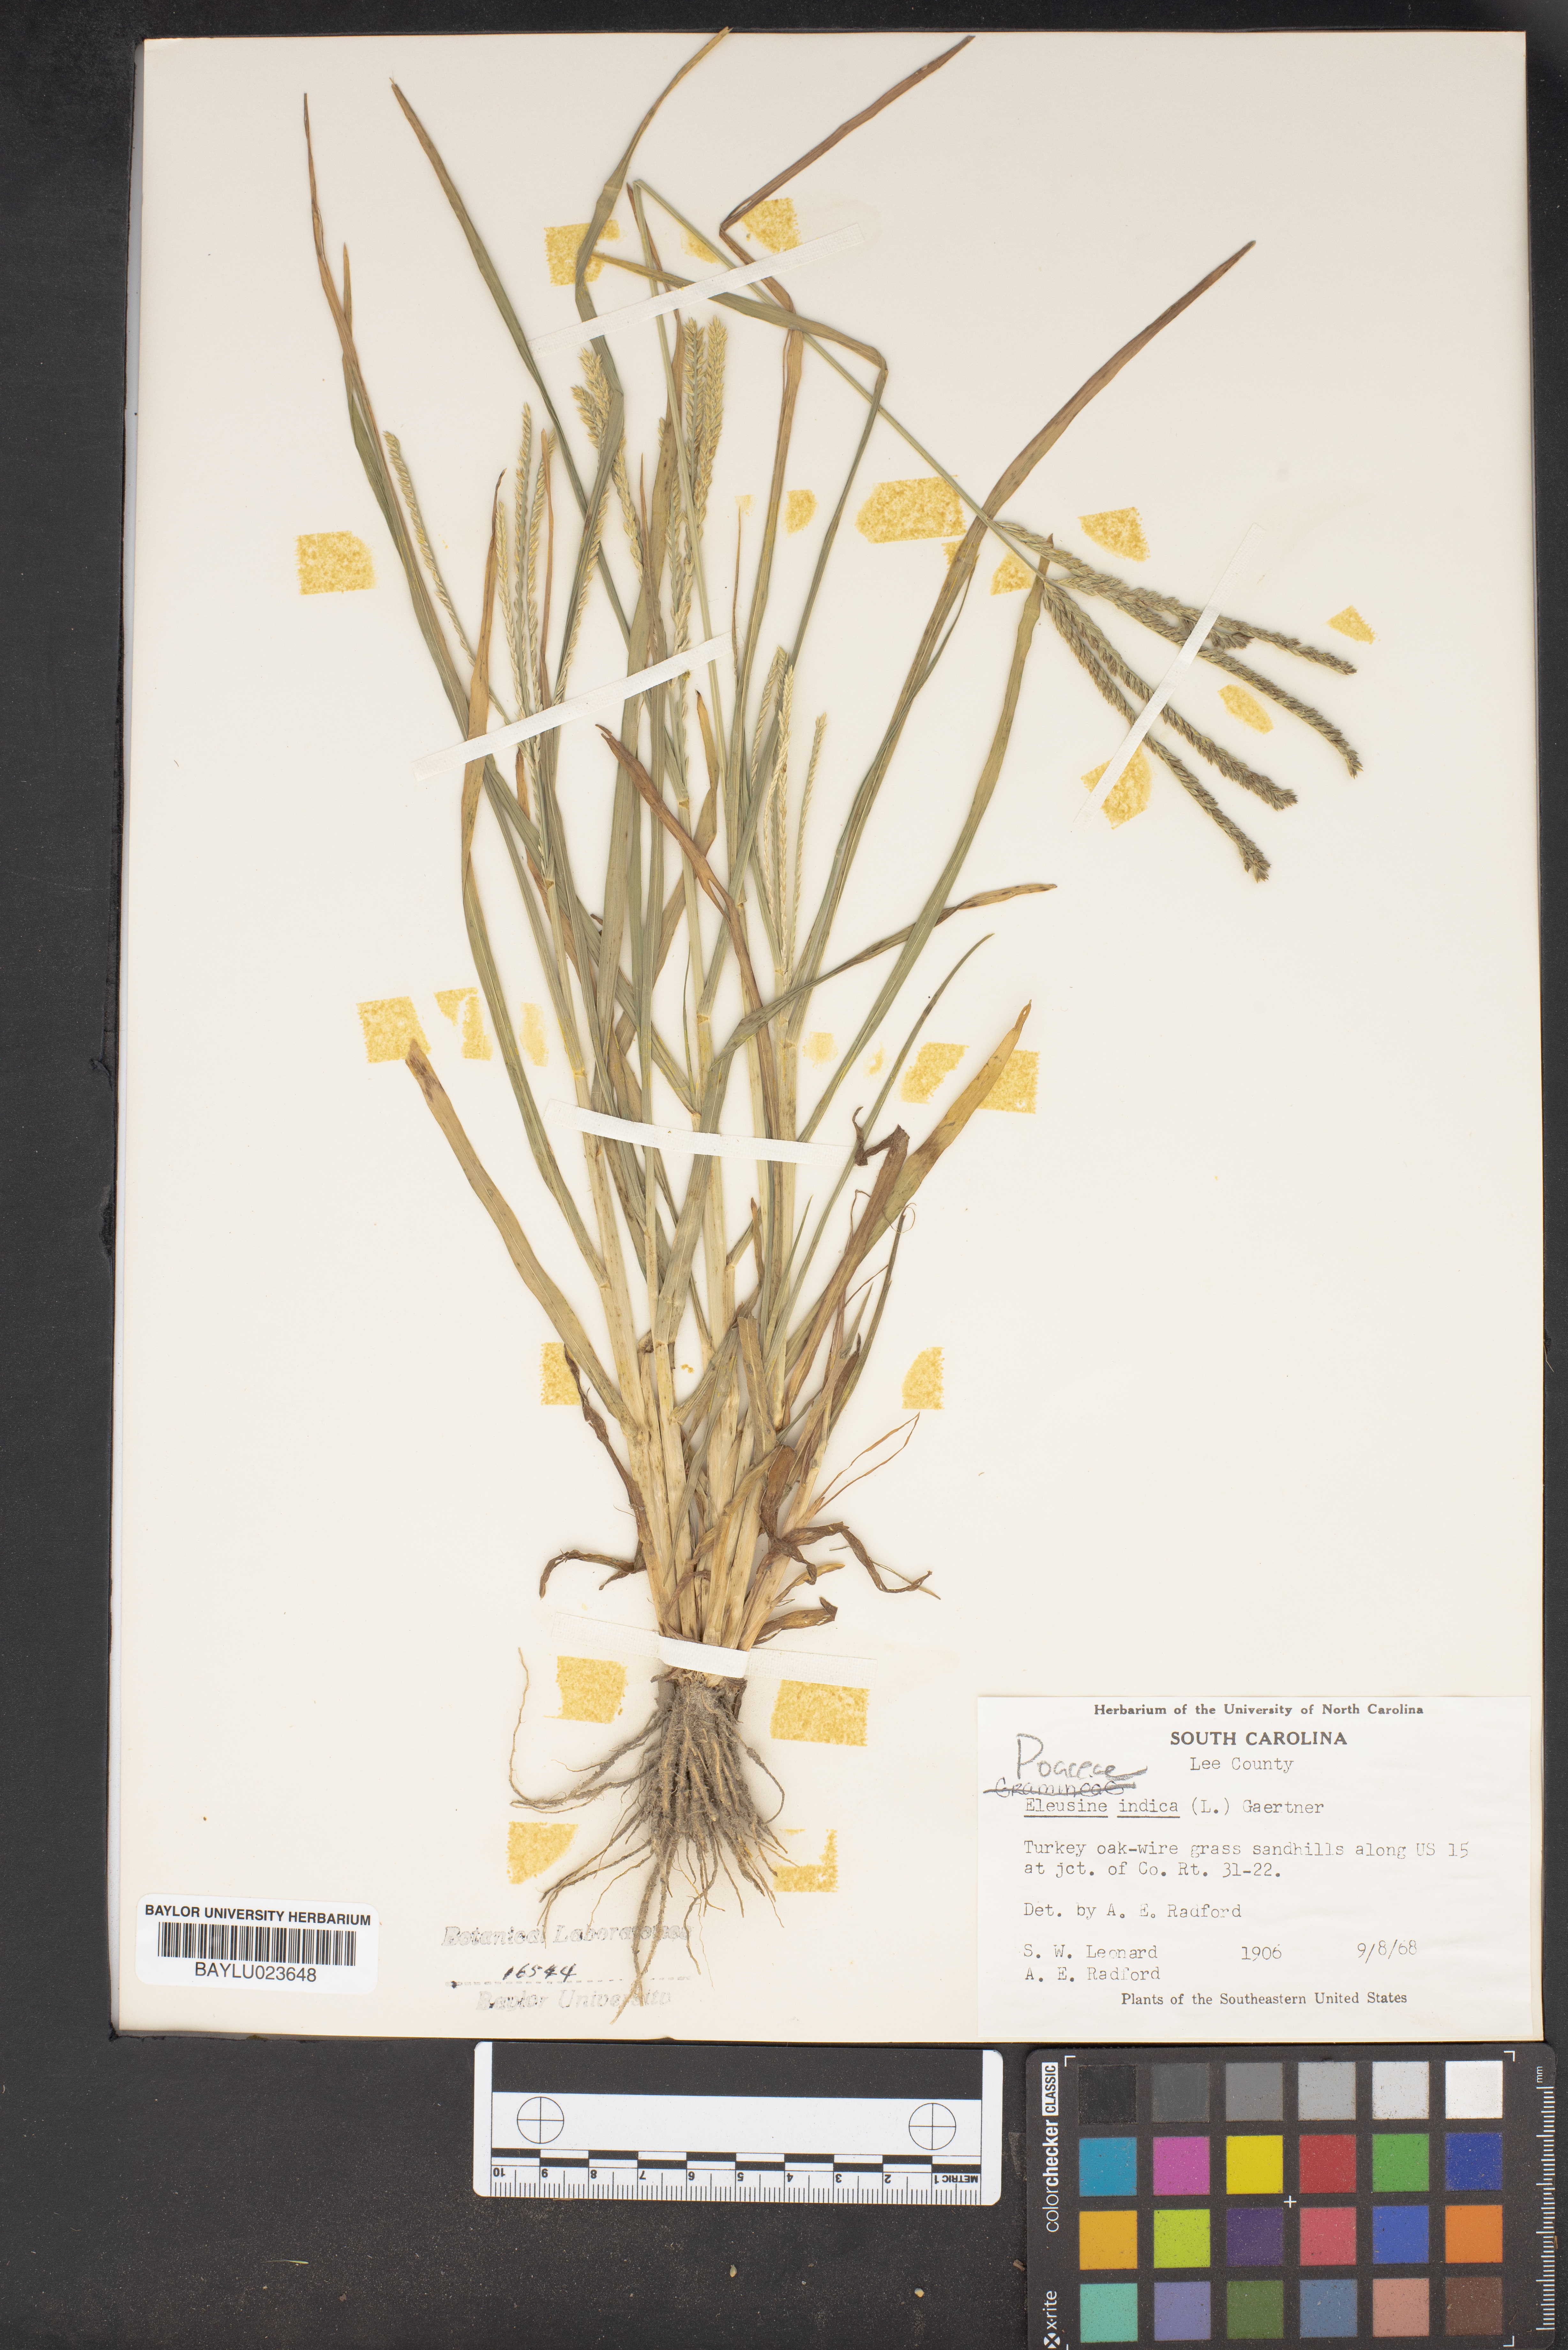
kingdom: Plantae
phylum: Tracheophyta
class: Liliopsida
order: Poales
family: Poaceae
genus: Eleusine
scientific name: Eleusine indica
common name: Yard-grass
